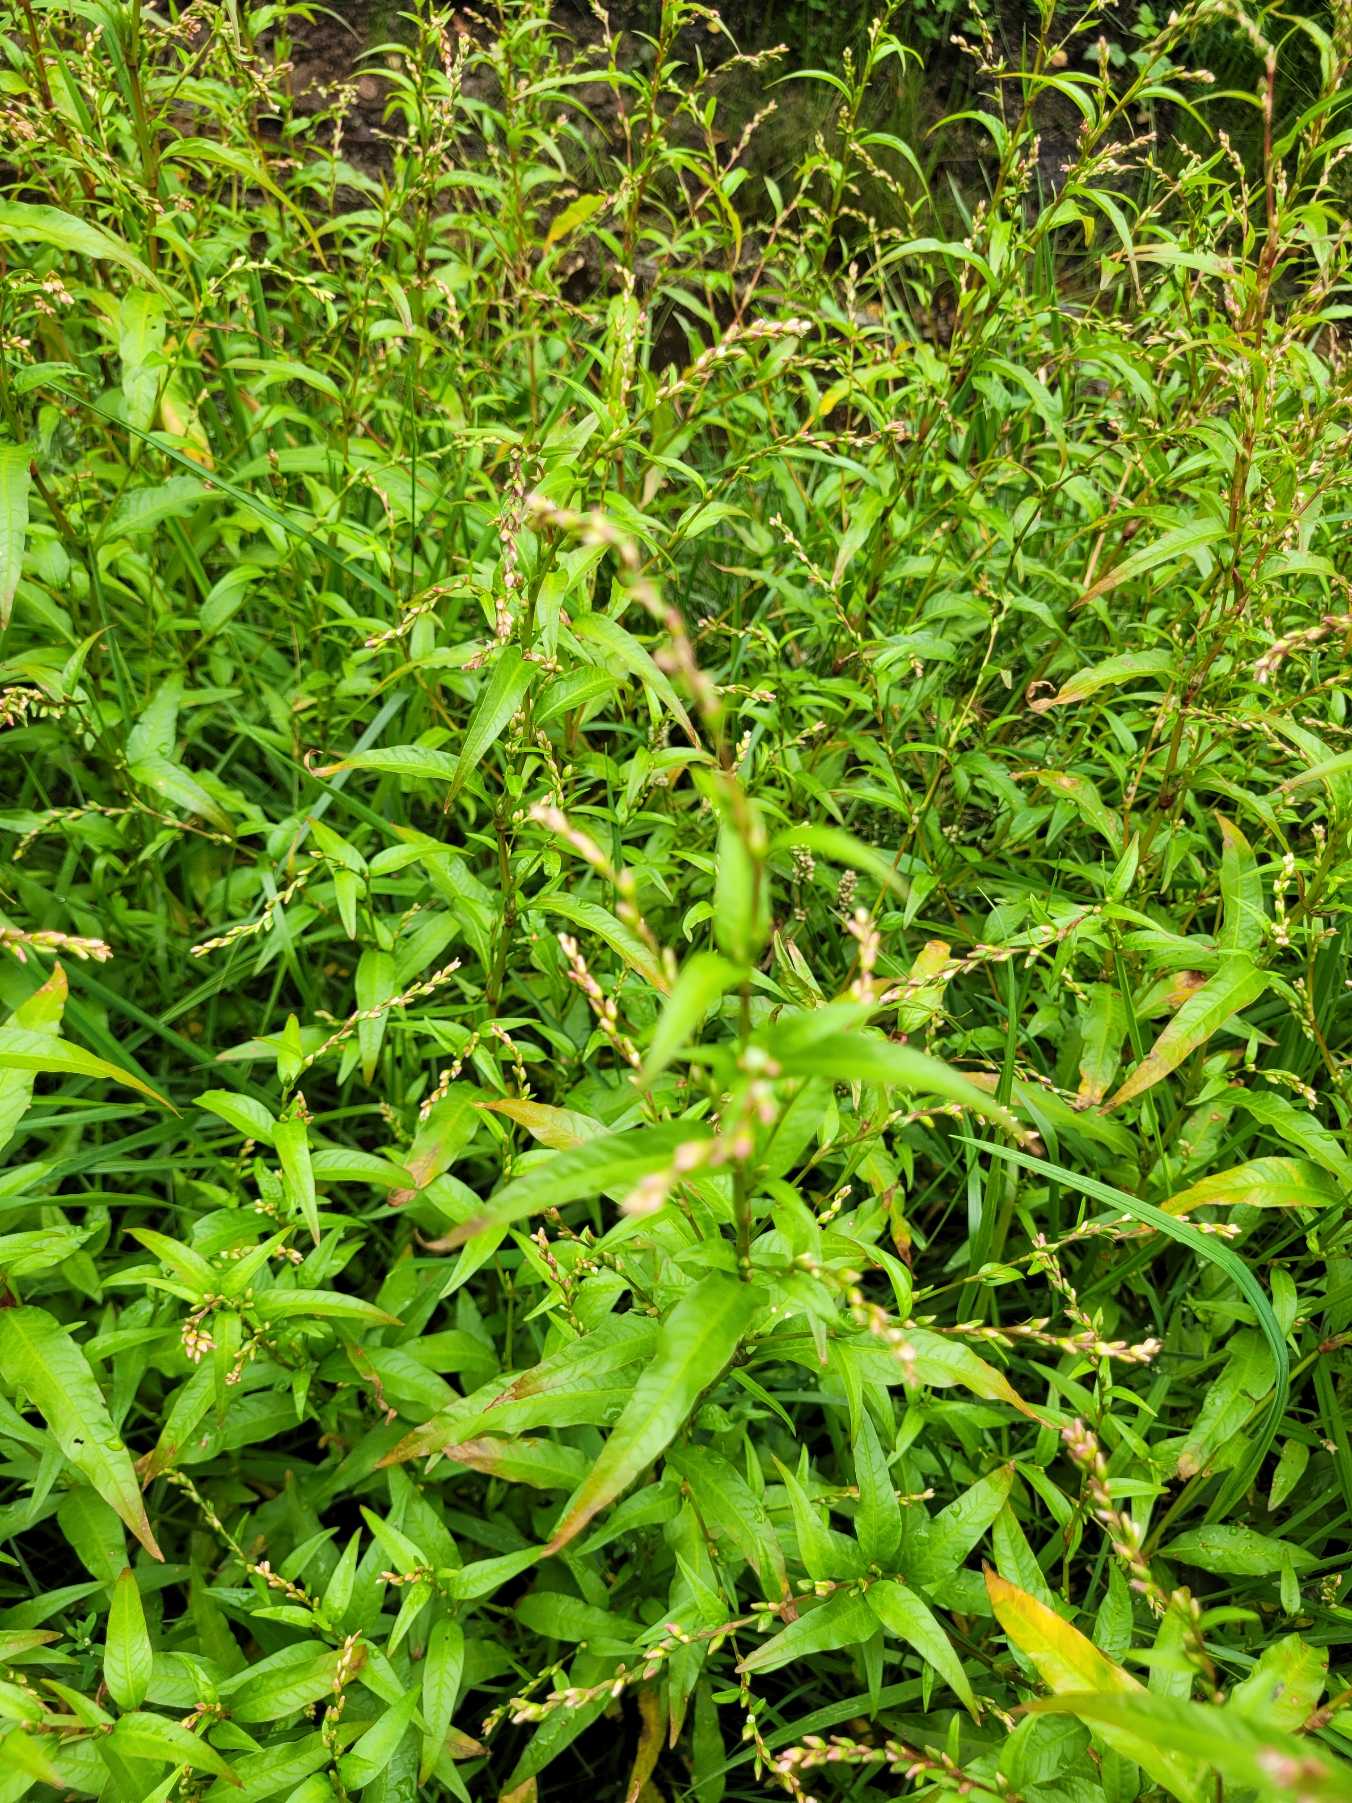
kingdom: Plantae
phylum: Tracheophyta
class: Magnoliopsida
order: Caryophyllales
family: Polygonaceae
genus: Persicaria
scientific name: Persicaria hydropiper
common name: Bidende pileurt
